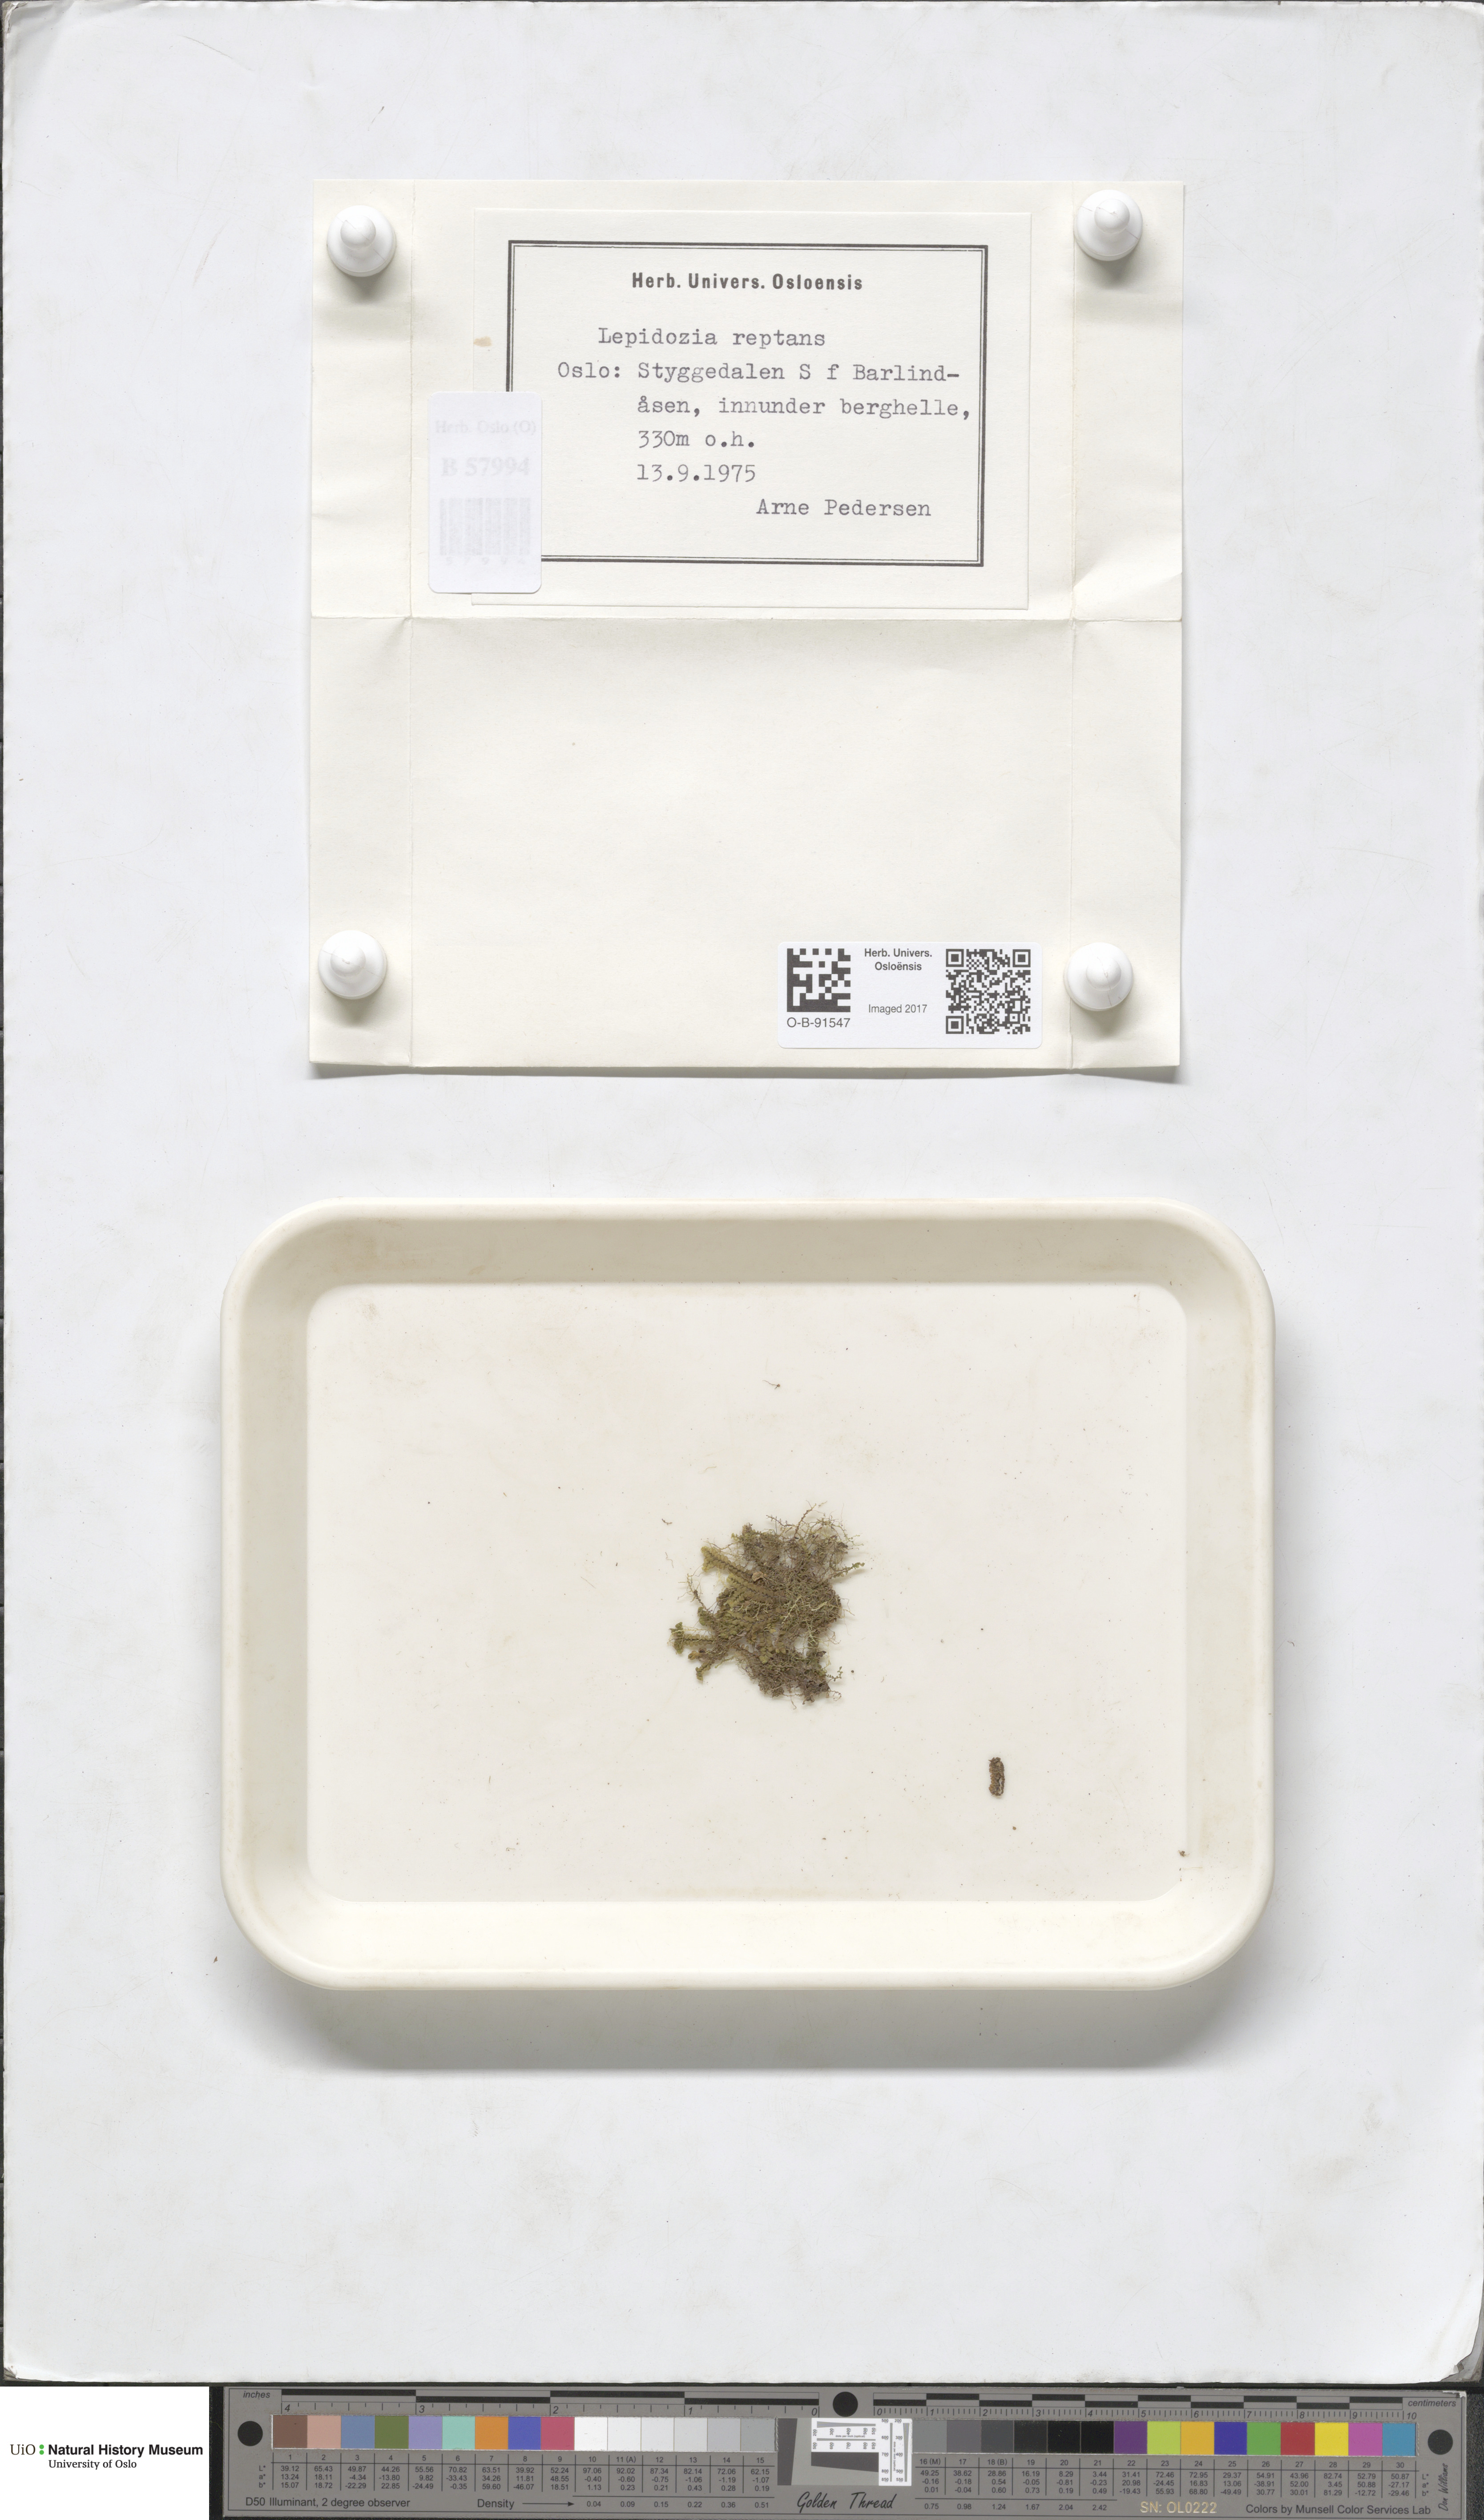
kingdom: Plantae
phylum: Marchantiophyta
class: Jungermanniopsida
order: Jungermanniales
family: Lepidoziaceae
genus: Lepidozia
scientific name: Lepidozia reptans
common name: Creeping fingerwort
